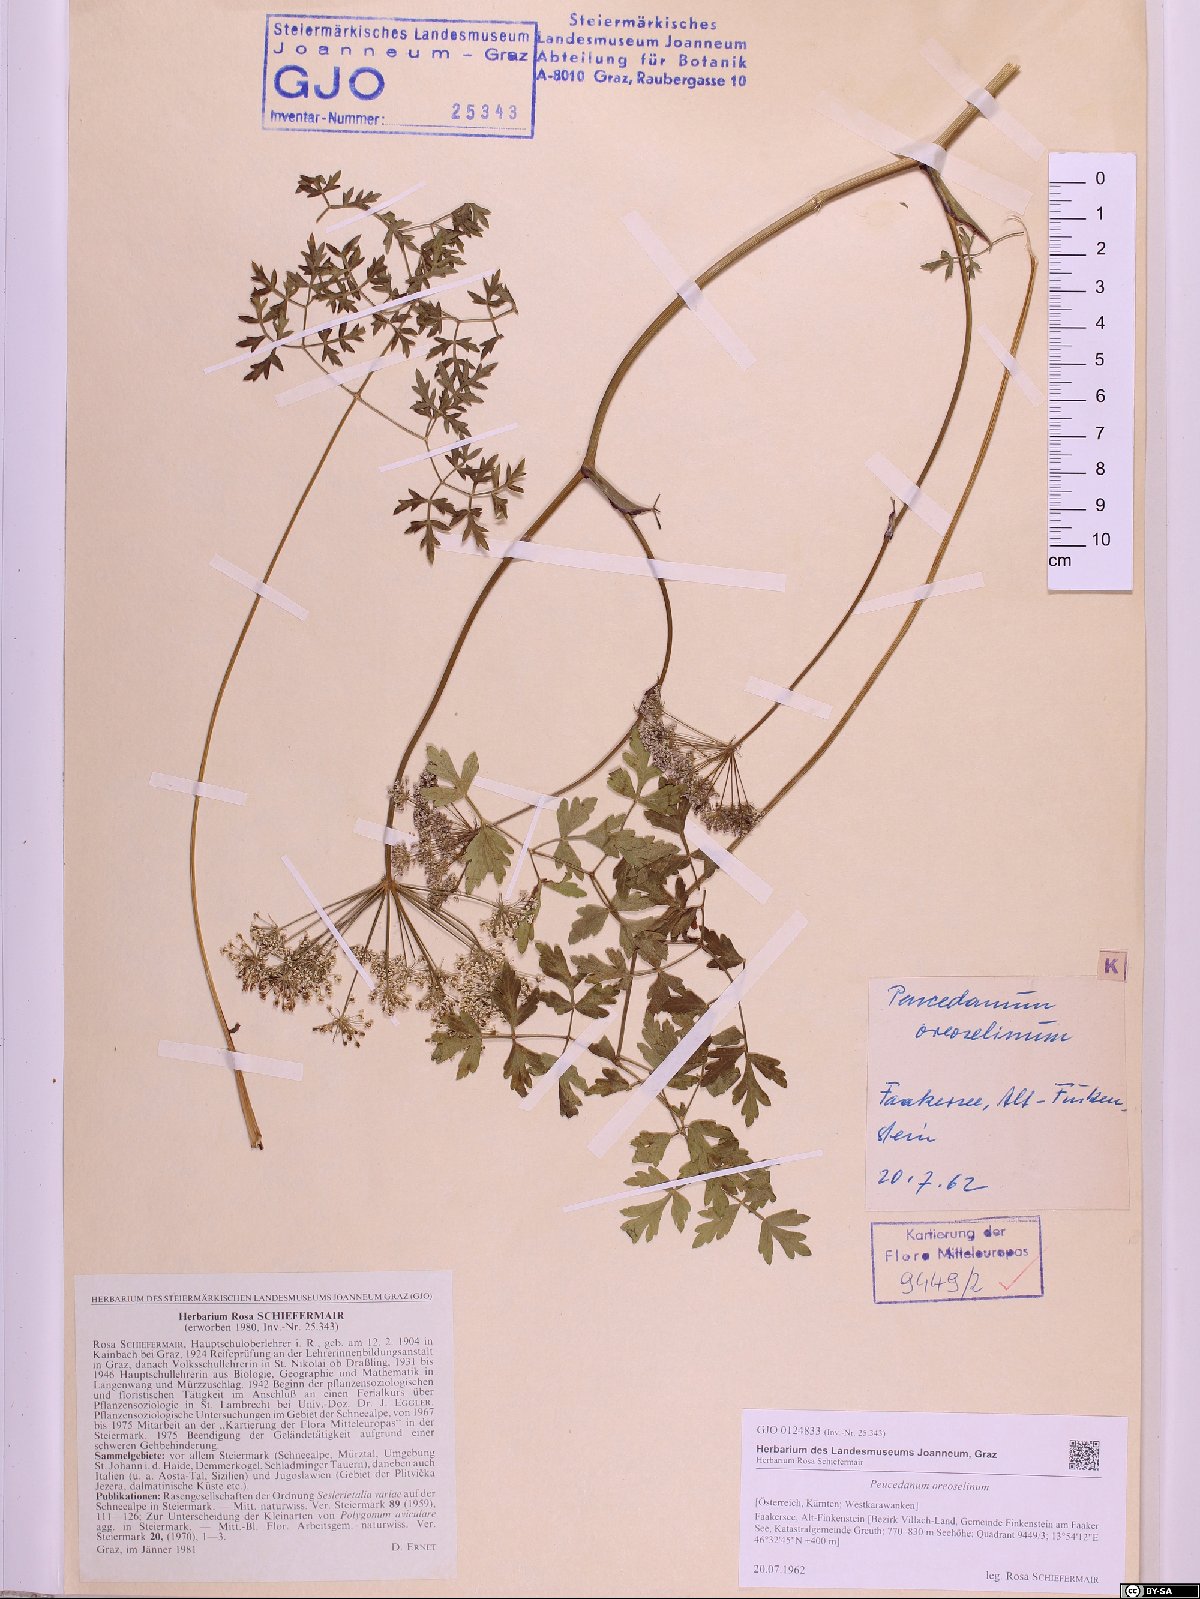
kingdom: Plantae
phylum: Tracheophyta
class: Magnoliopsida
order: Apiales
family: Apiaceae
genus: Oreoselinum
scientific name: Oreoselinum nigrum
